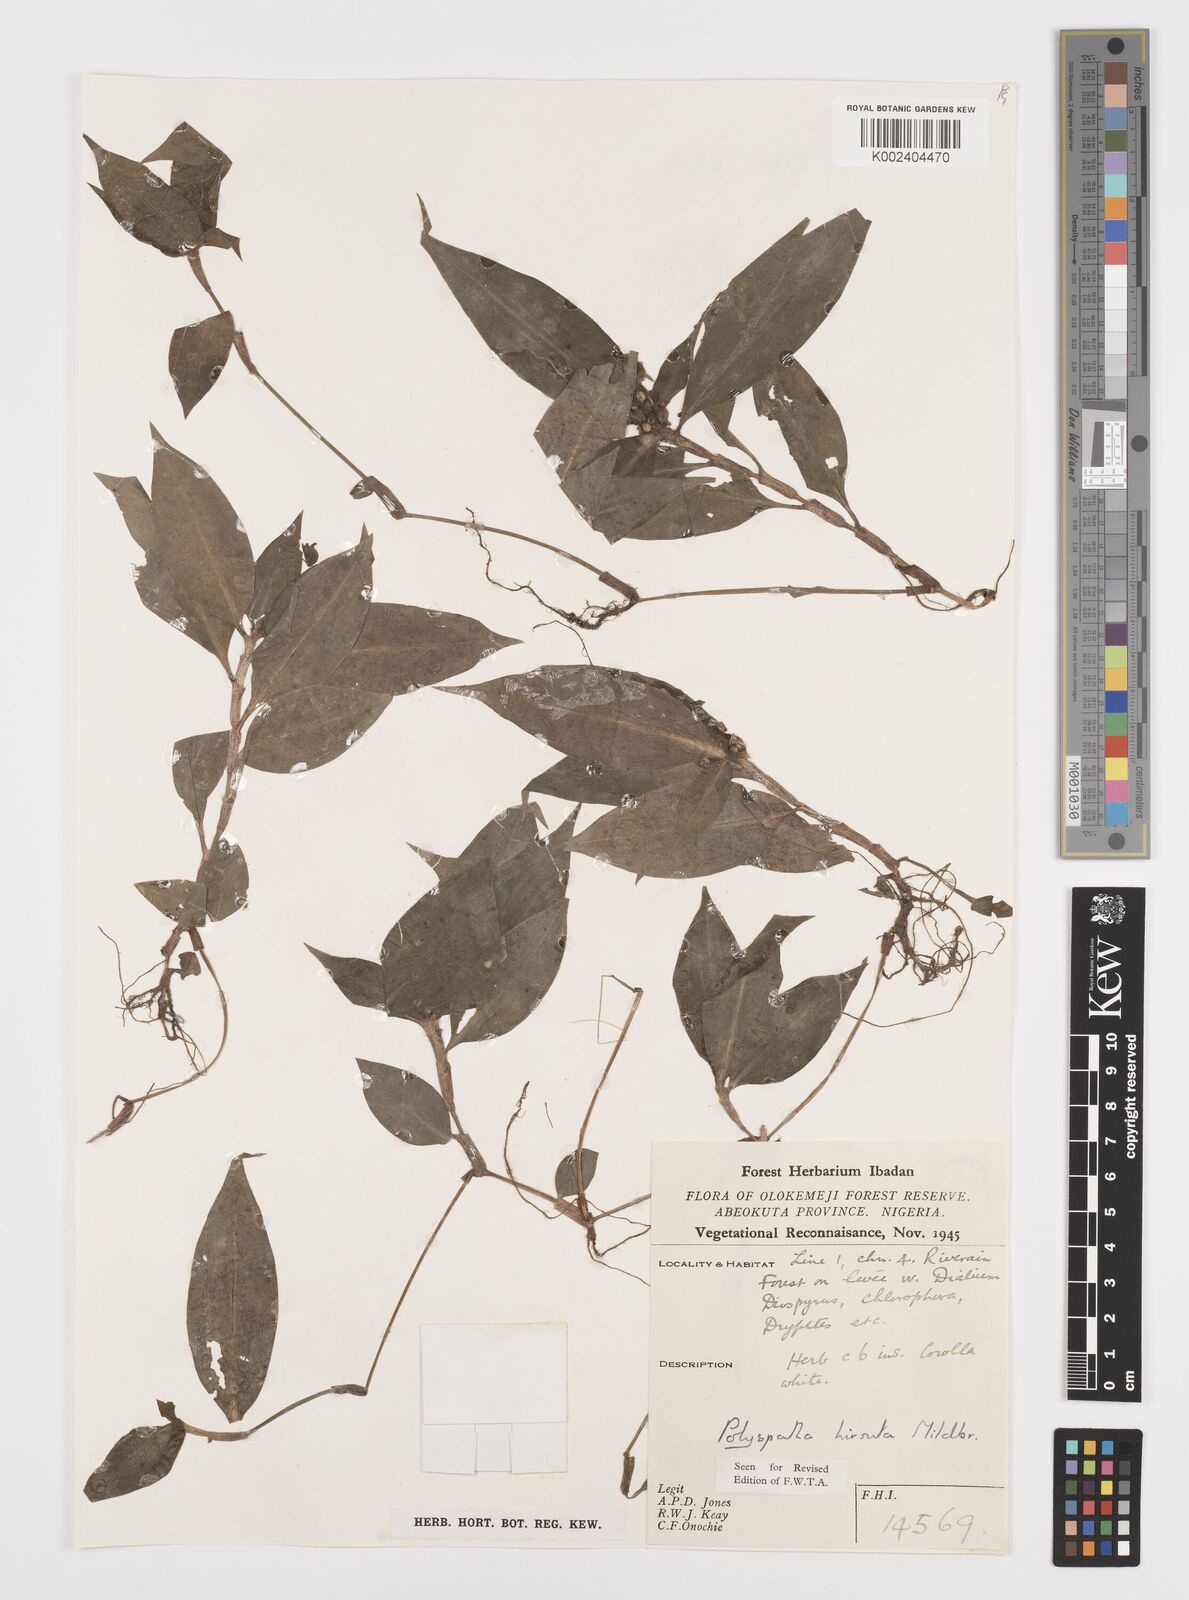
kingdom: Plantae
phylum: Tracheophyta
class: Liliopsida
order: Commelinales
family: Commelinaceae
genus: Polyspatha
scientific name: Polyspatha hirsuta
